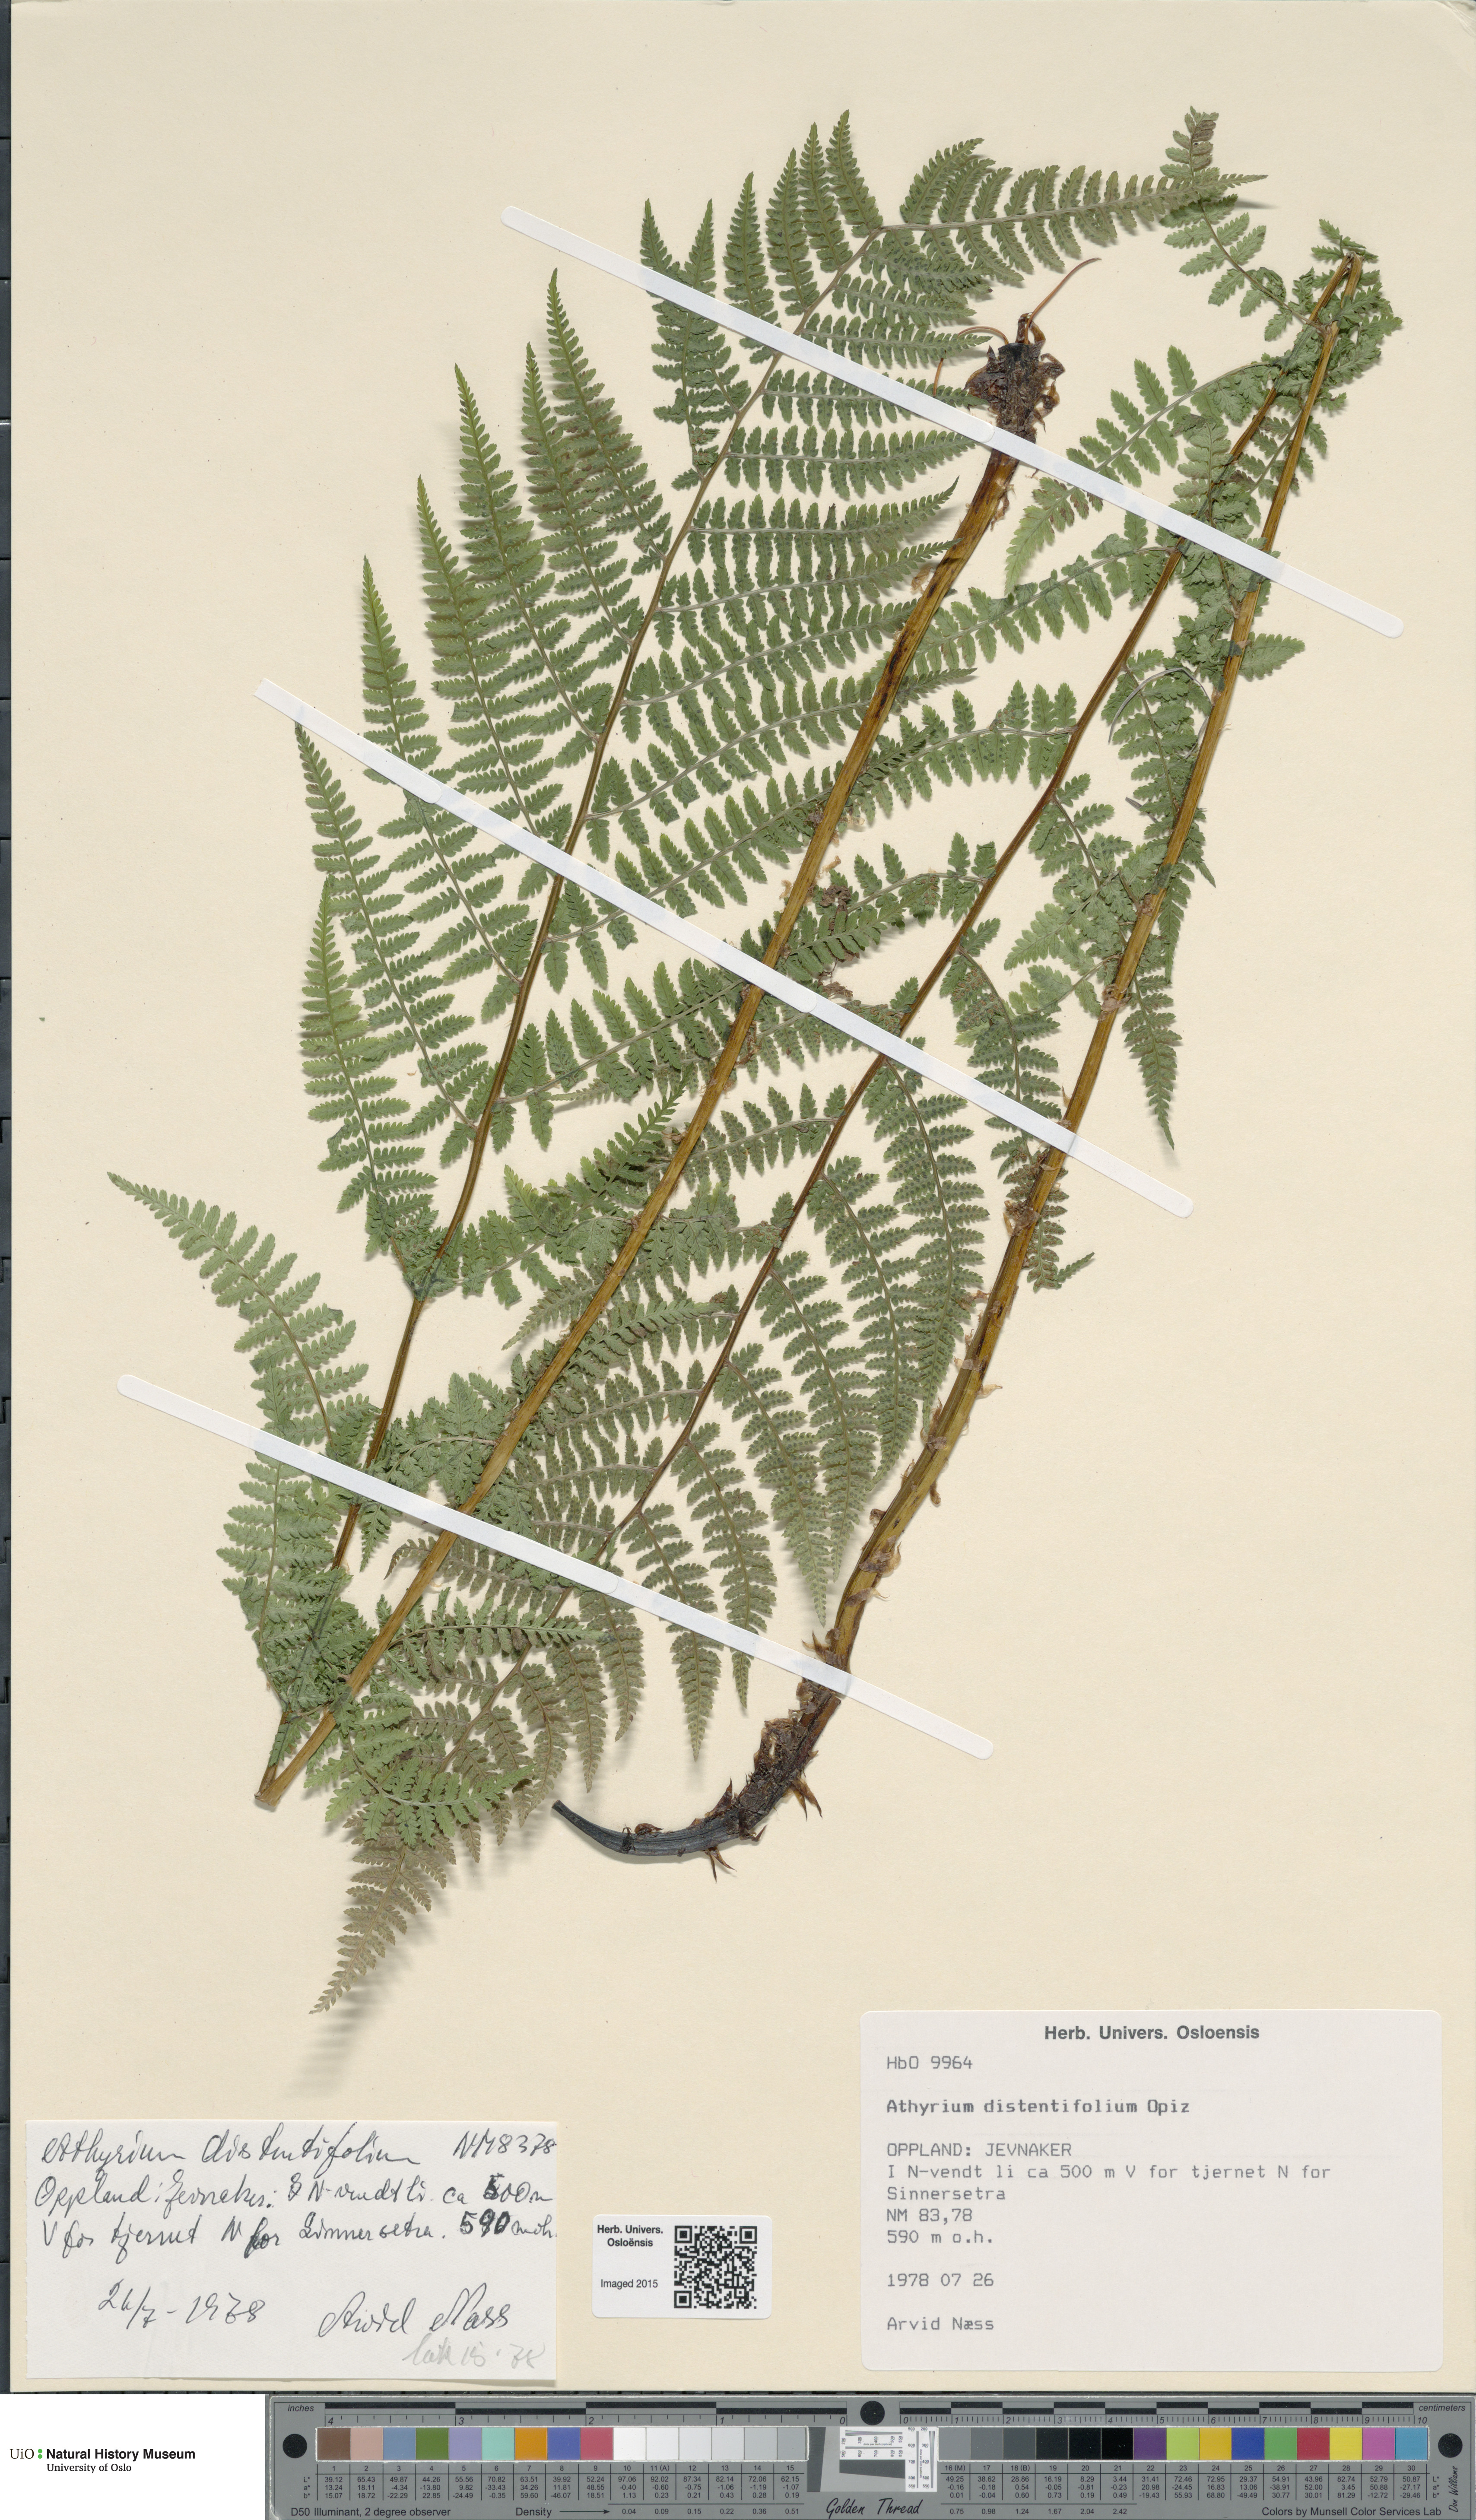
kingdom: Plantae
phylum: Tracheophyta
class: Polypodiopsida
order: Polypodiales
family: Athyriaceae
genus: Pseudathyrium
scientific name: Pseudathyrium alpestre
